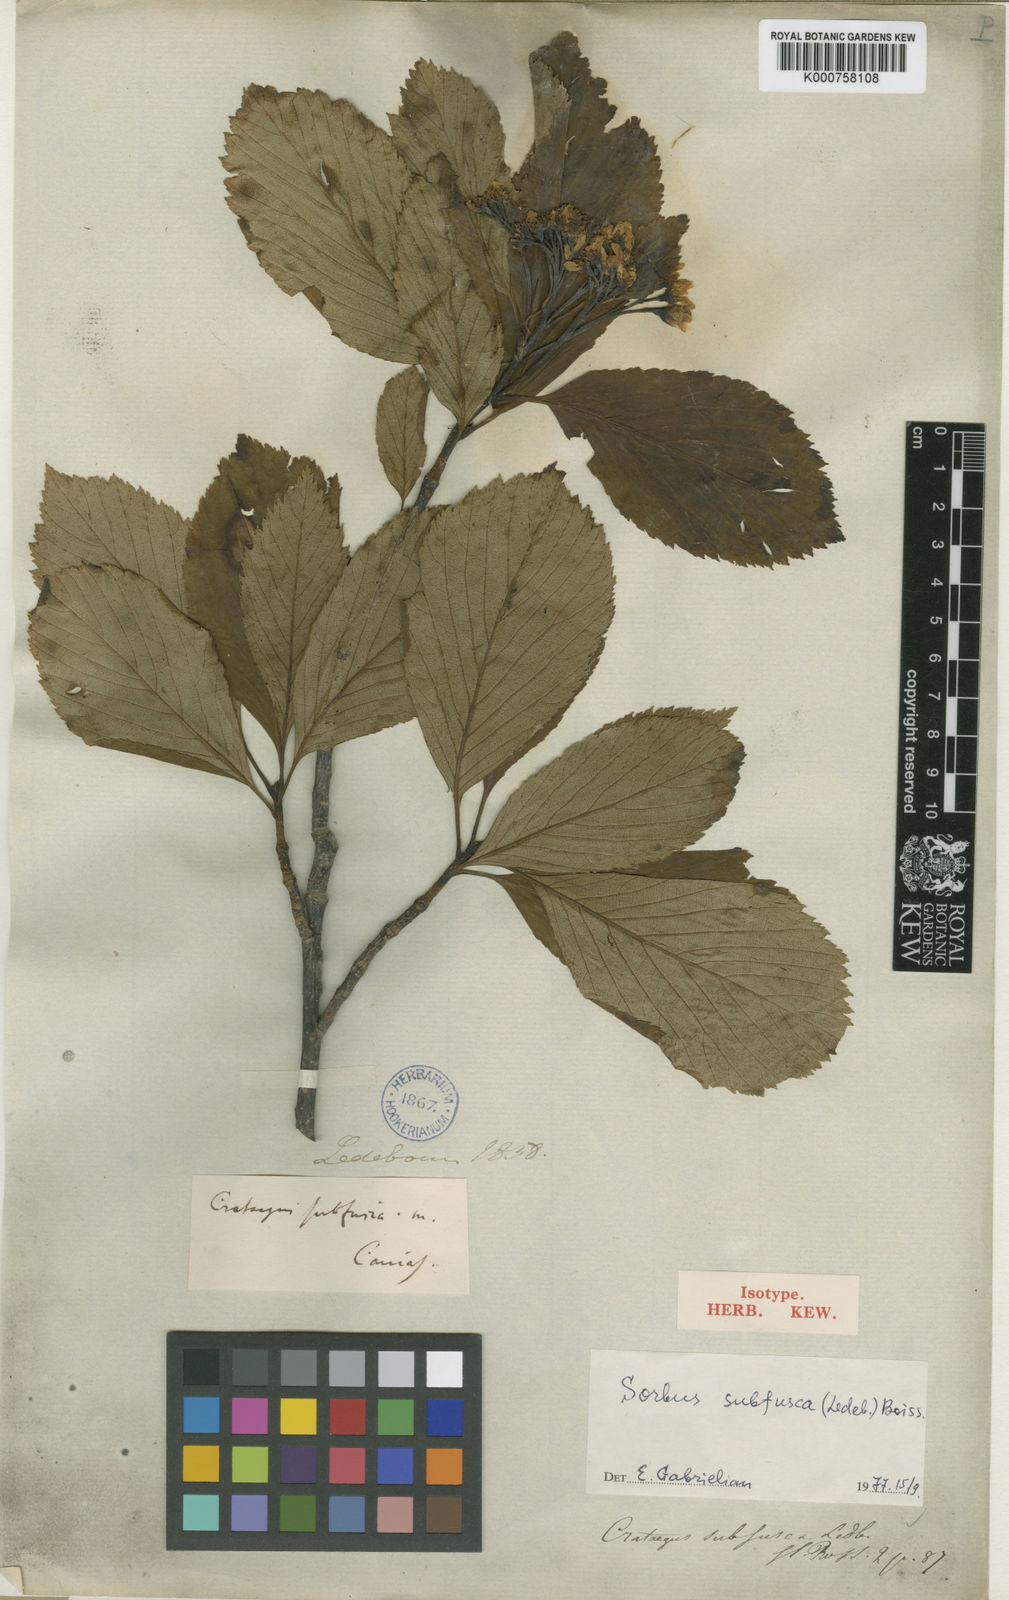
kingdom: Plantae
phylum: Tracheophyta
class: Magnoliopsida
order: Rosales
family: Rosaceae
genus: Sorbus
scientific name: Sorbus subfusca
